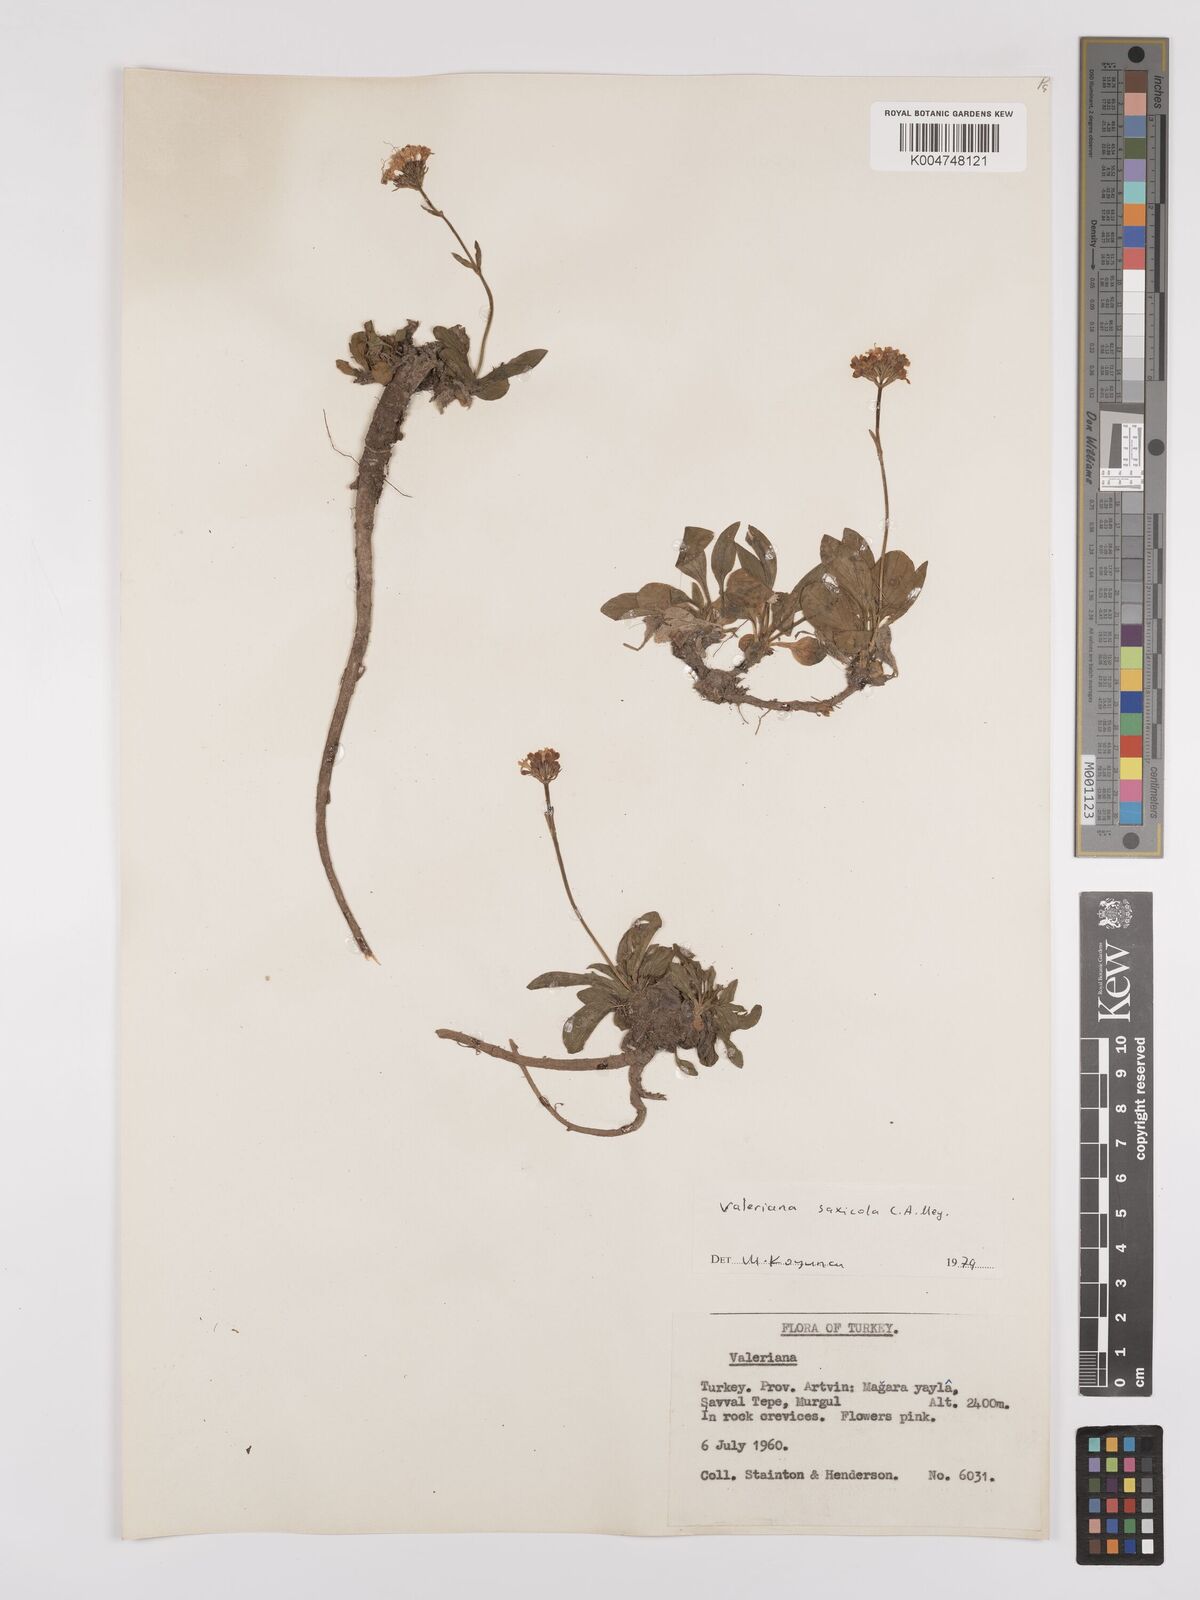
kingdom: Plantae
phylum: Tracheophyta
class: Magnoliopsida
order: Dipsacales
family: Caprifoliaceae
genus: Valeriana
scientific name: Valeriana
